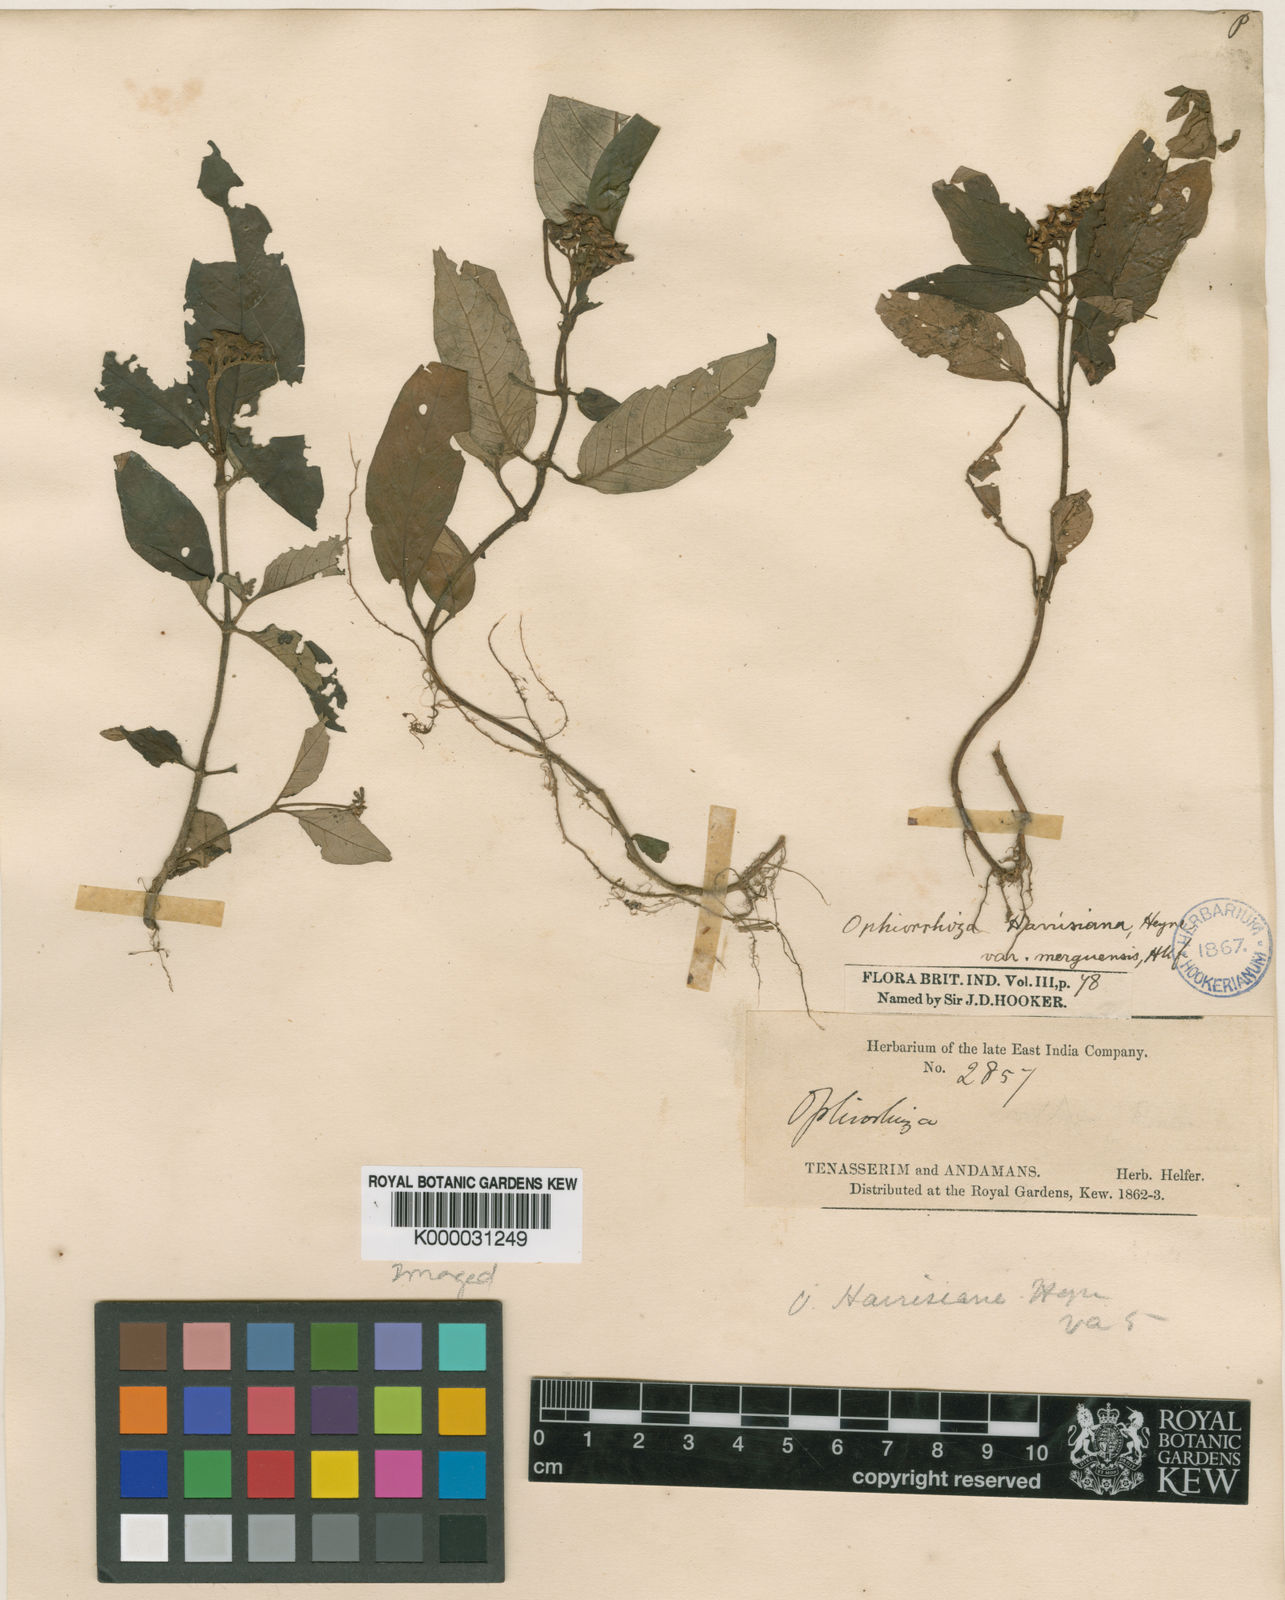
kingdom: Plantae
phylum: Tracheophyta
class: Magnoliopsida
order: Gentianales
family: Rubiaceae
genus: Ophiorrhiza
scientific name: Ophiorrhiza rugosa
